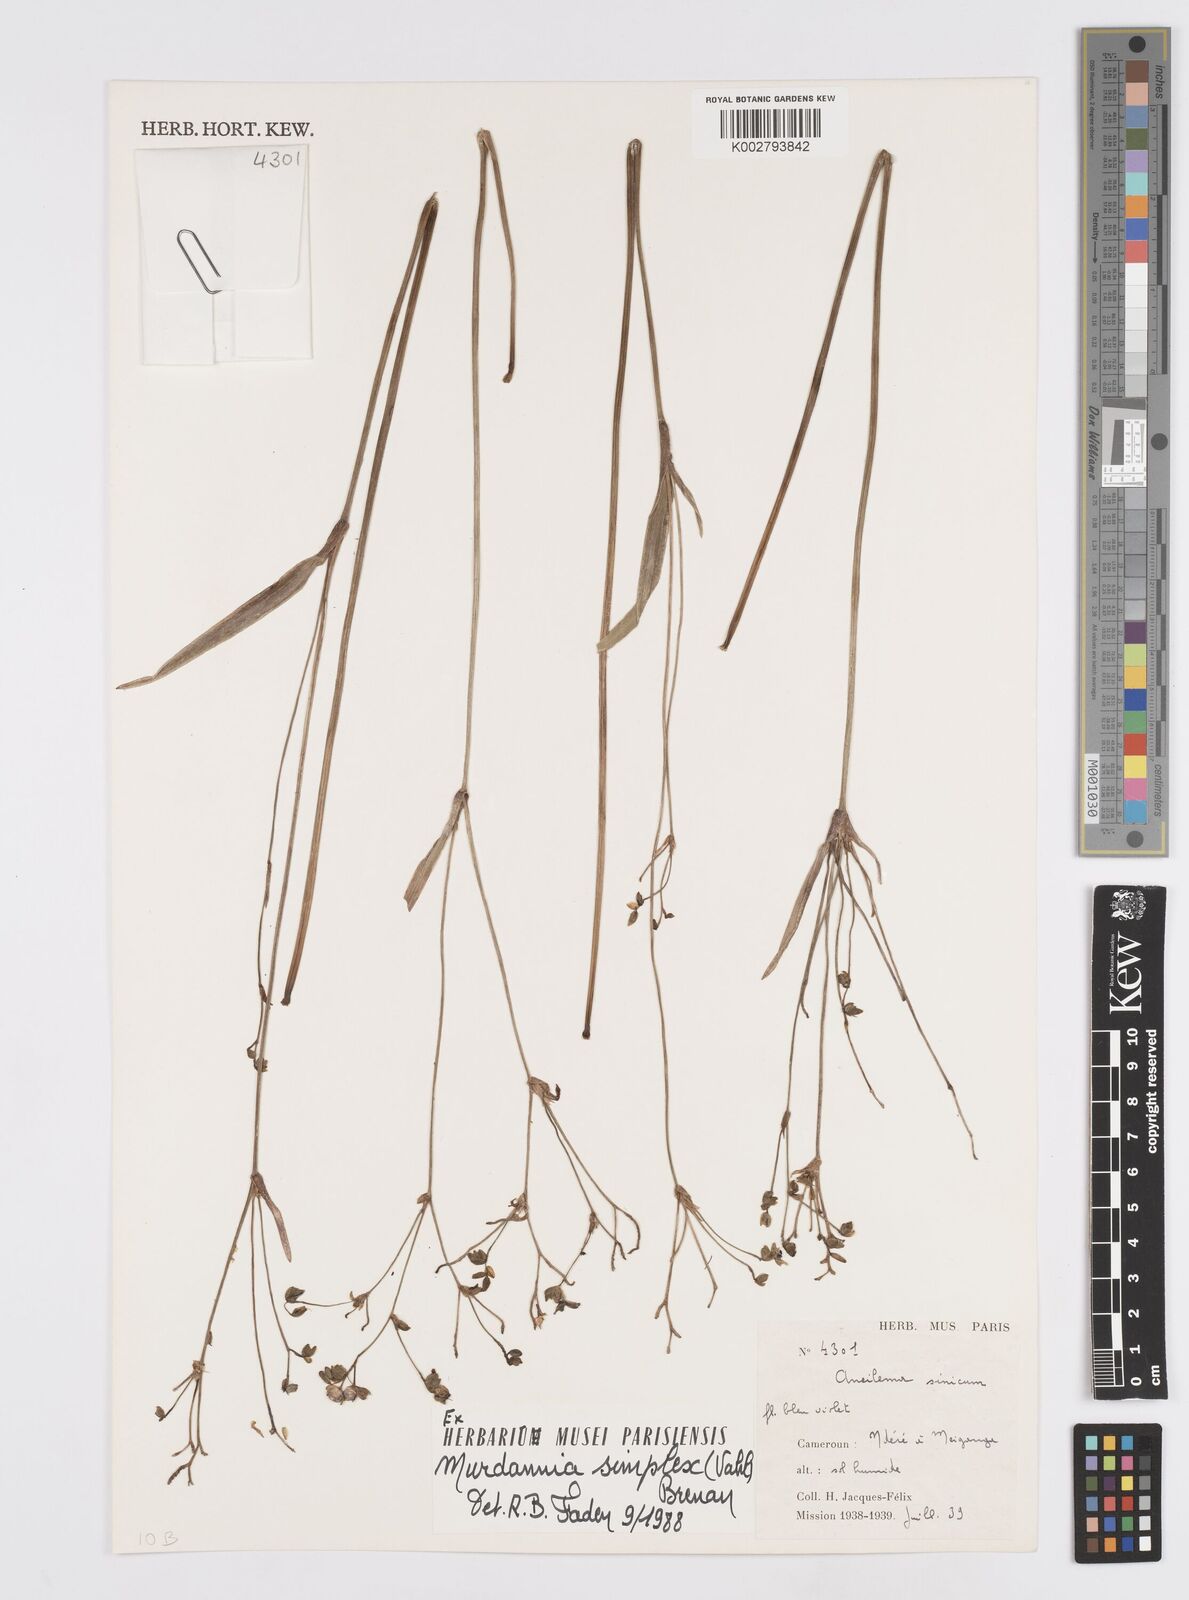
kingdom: Plantae
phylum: Tracheophyta
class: Liliopsida
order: Commelinales
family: Commelinaceae
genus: Murdannia
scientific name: Murdannia simplex
